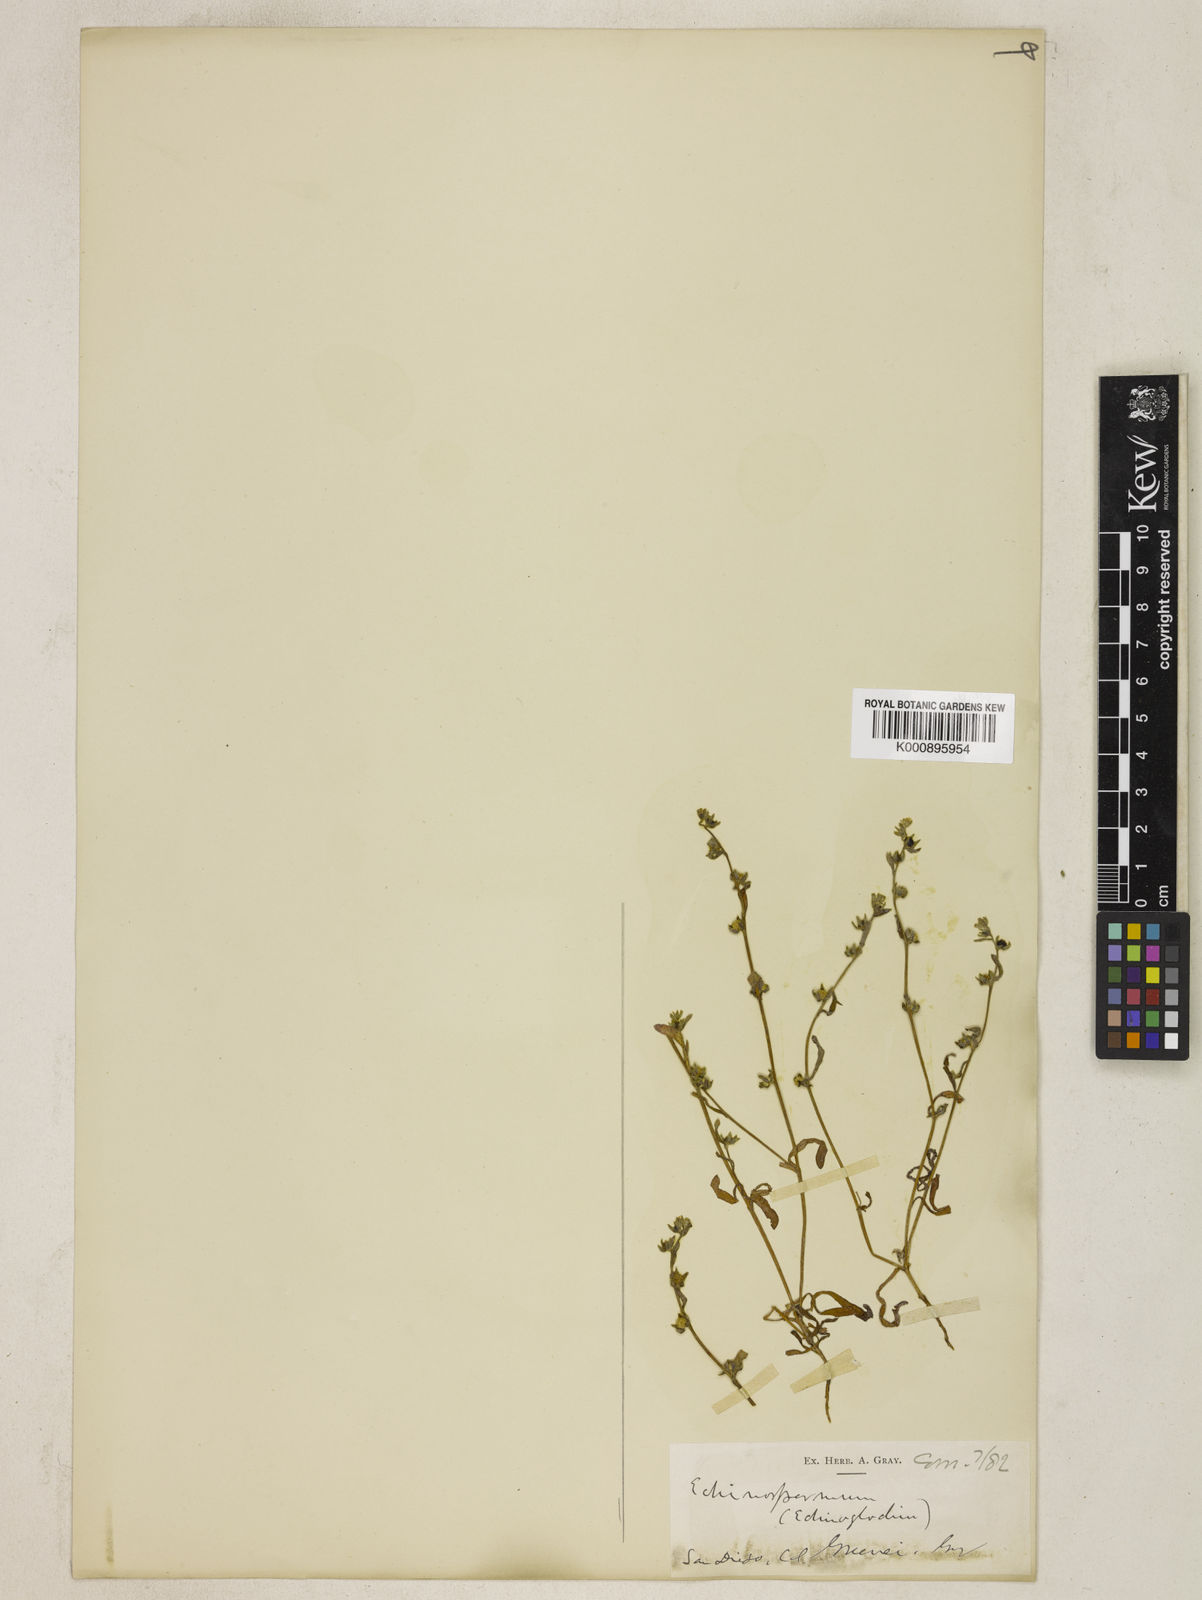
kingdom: Plantae
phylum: Tracheophyta
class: Magnoliopsida
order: Boraginales
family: Boraginaceae
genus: Plagiobothrys
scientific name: Plagiobothrys greenei
